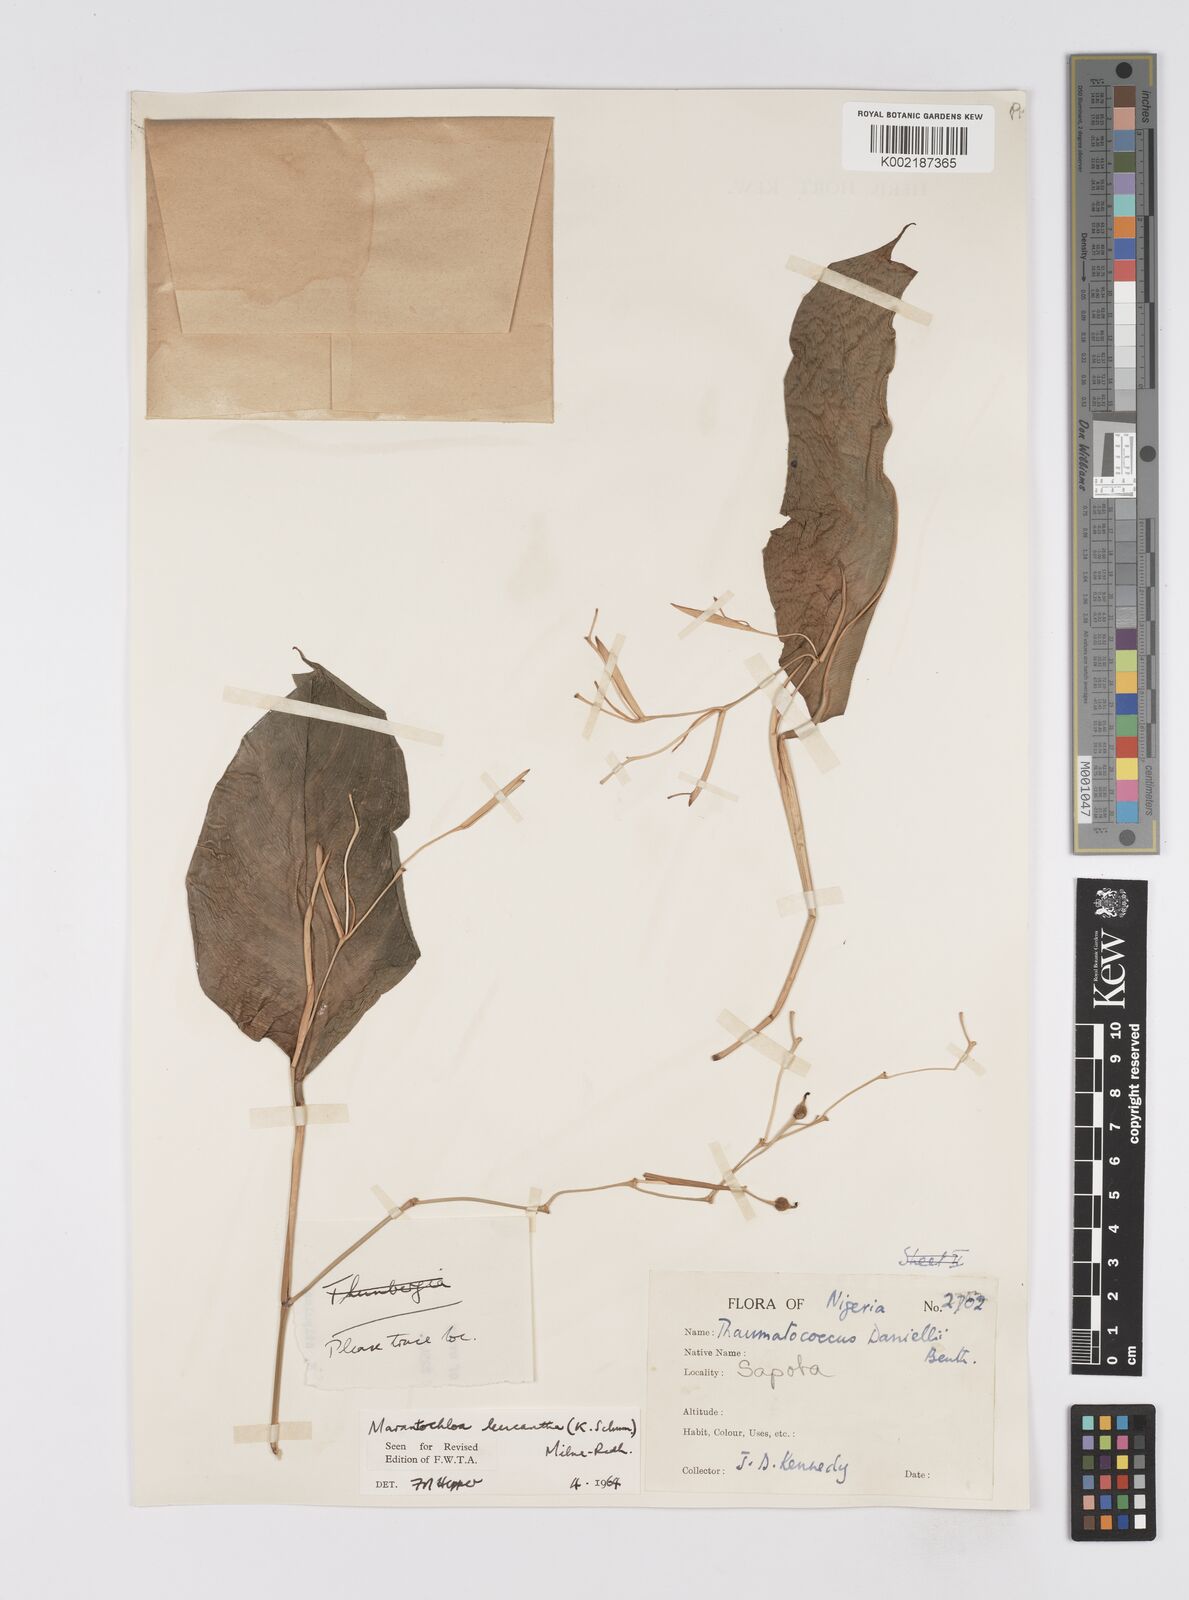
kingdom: Plantae
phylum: Tracheophyta
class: Liliopsida
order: Zingiberales
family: Marantaceae
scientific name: Marantaceae
